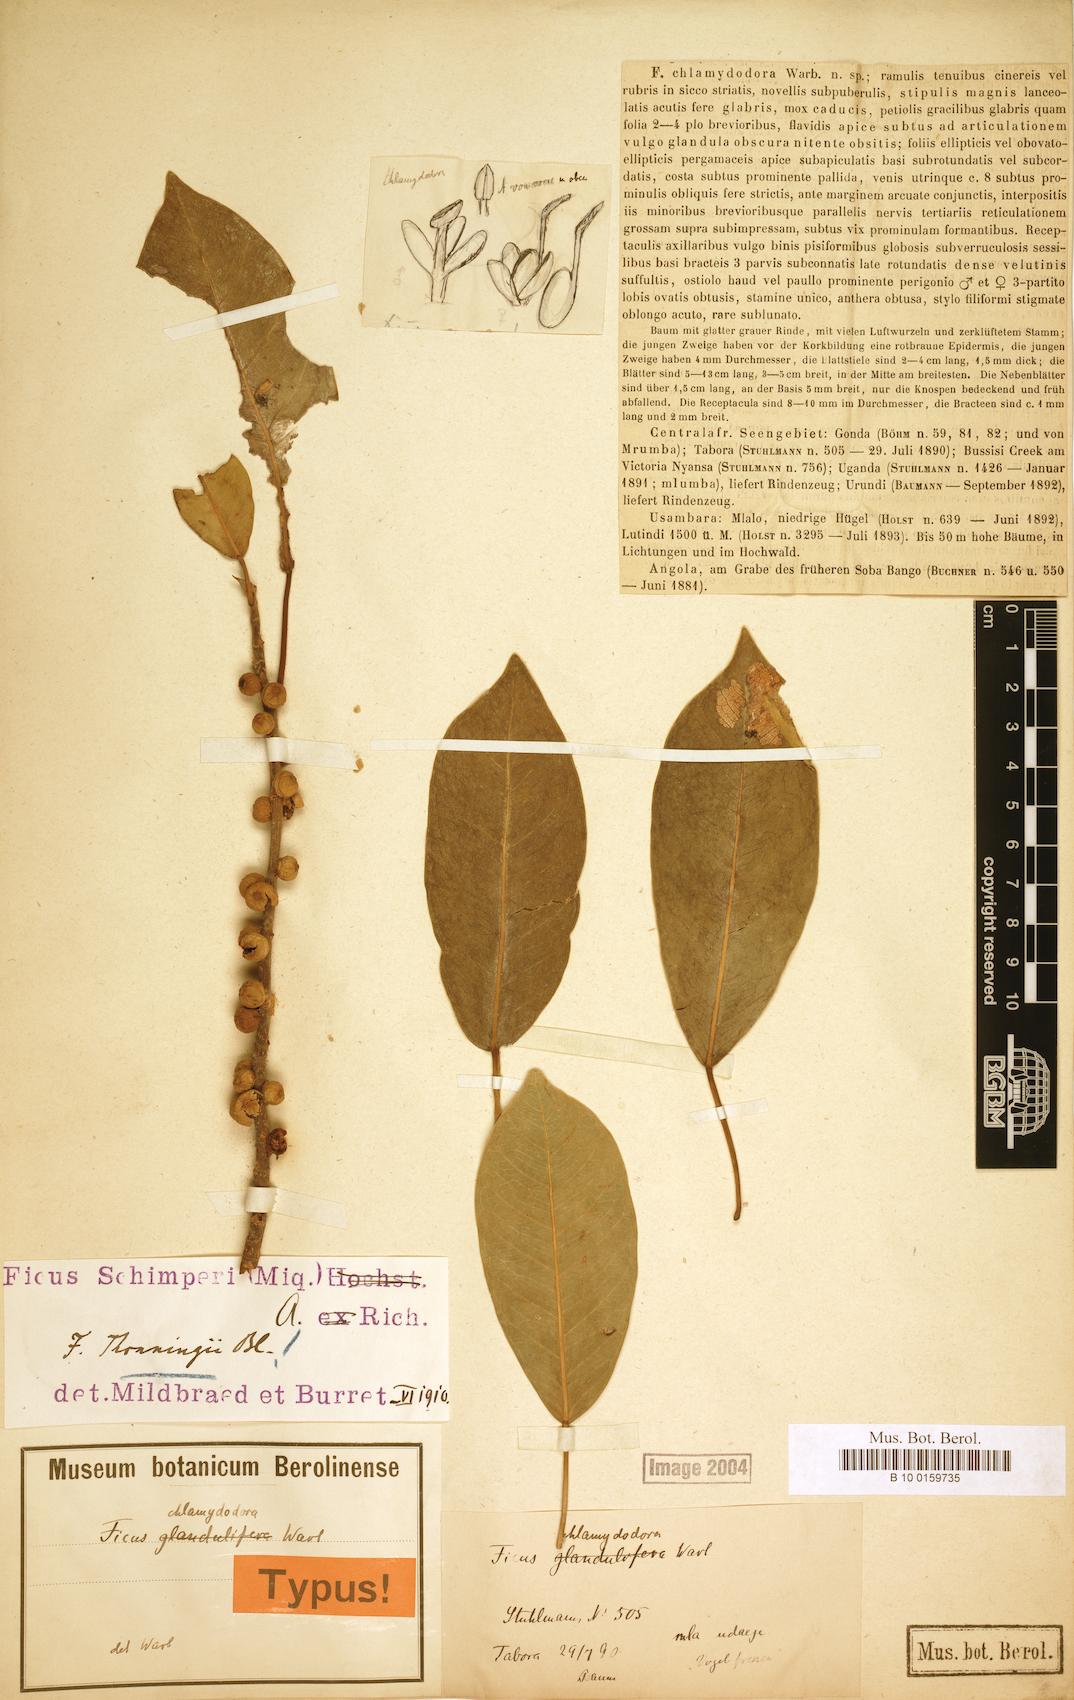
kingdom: Plantae
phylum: Tracheophyta
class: Magnoliopsida
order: Rosales
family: Moraceae
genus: Ficus
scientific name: Ficus thonningii
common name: Fig
